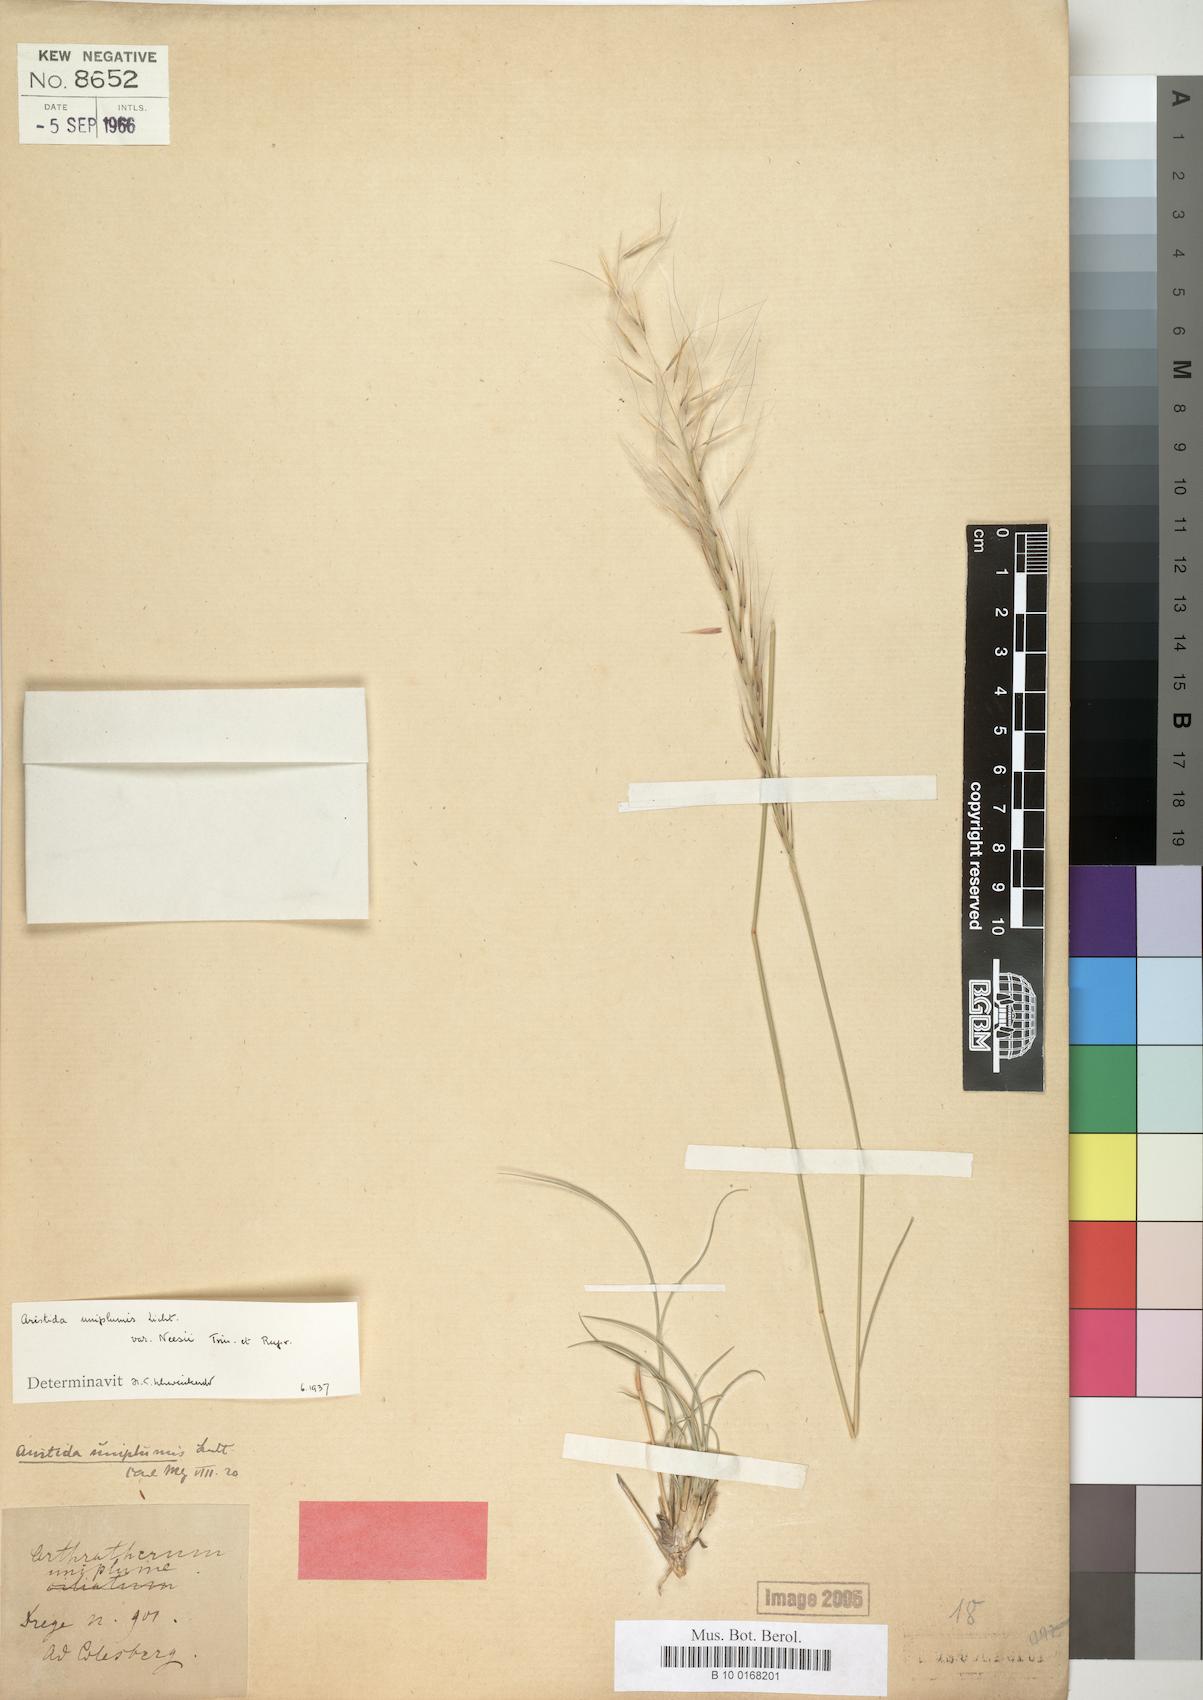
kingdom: Plantae
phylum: Tracheophyta
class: Liliopsida
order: Poales
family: Poaceae
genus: Stipagrostis
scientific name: Stipagrostis uniplumis
